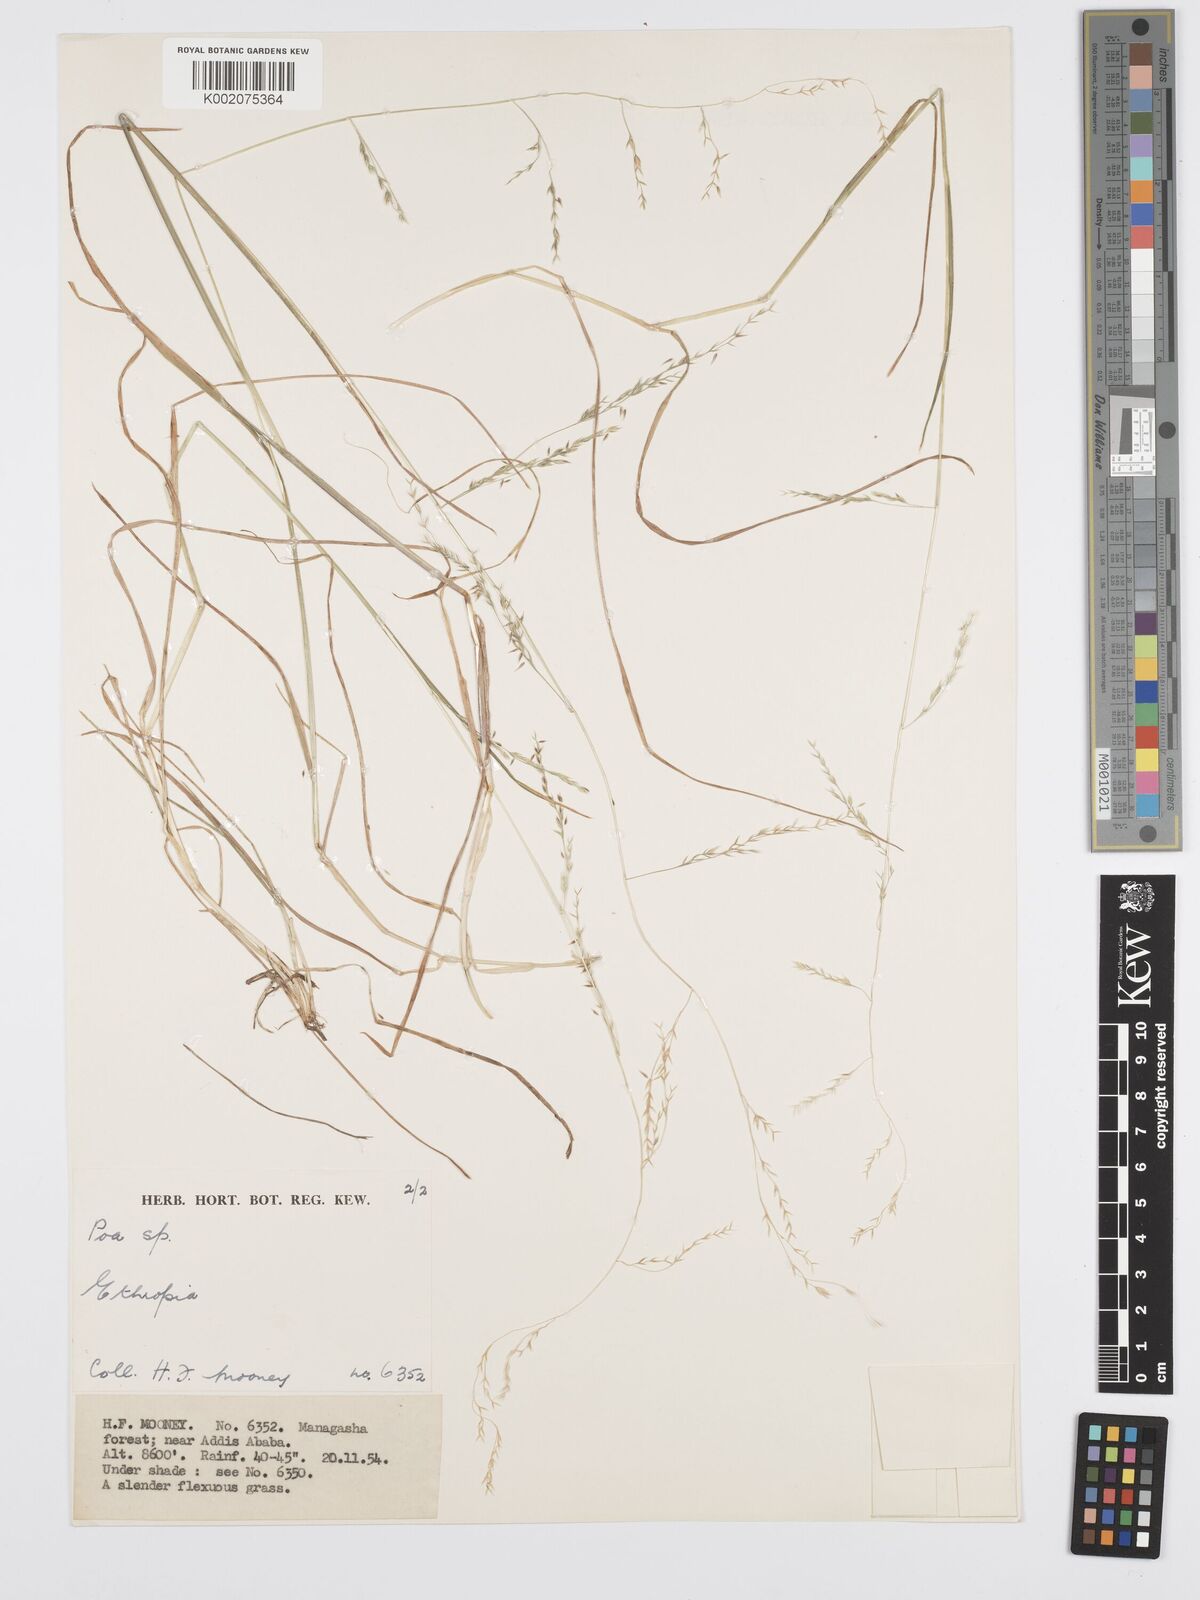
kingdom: Plantae
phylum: Tracheophyta
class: Liliopsida
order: Poales
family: Poaceae
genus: Poa
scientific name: Poa schimperiana
